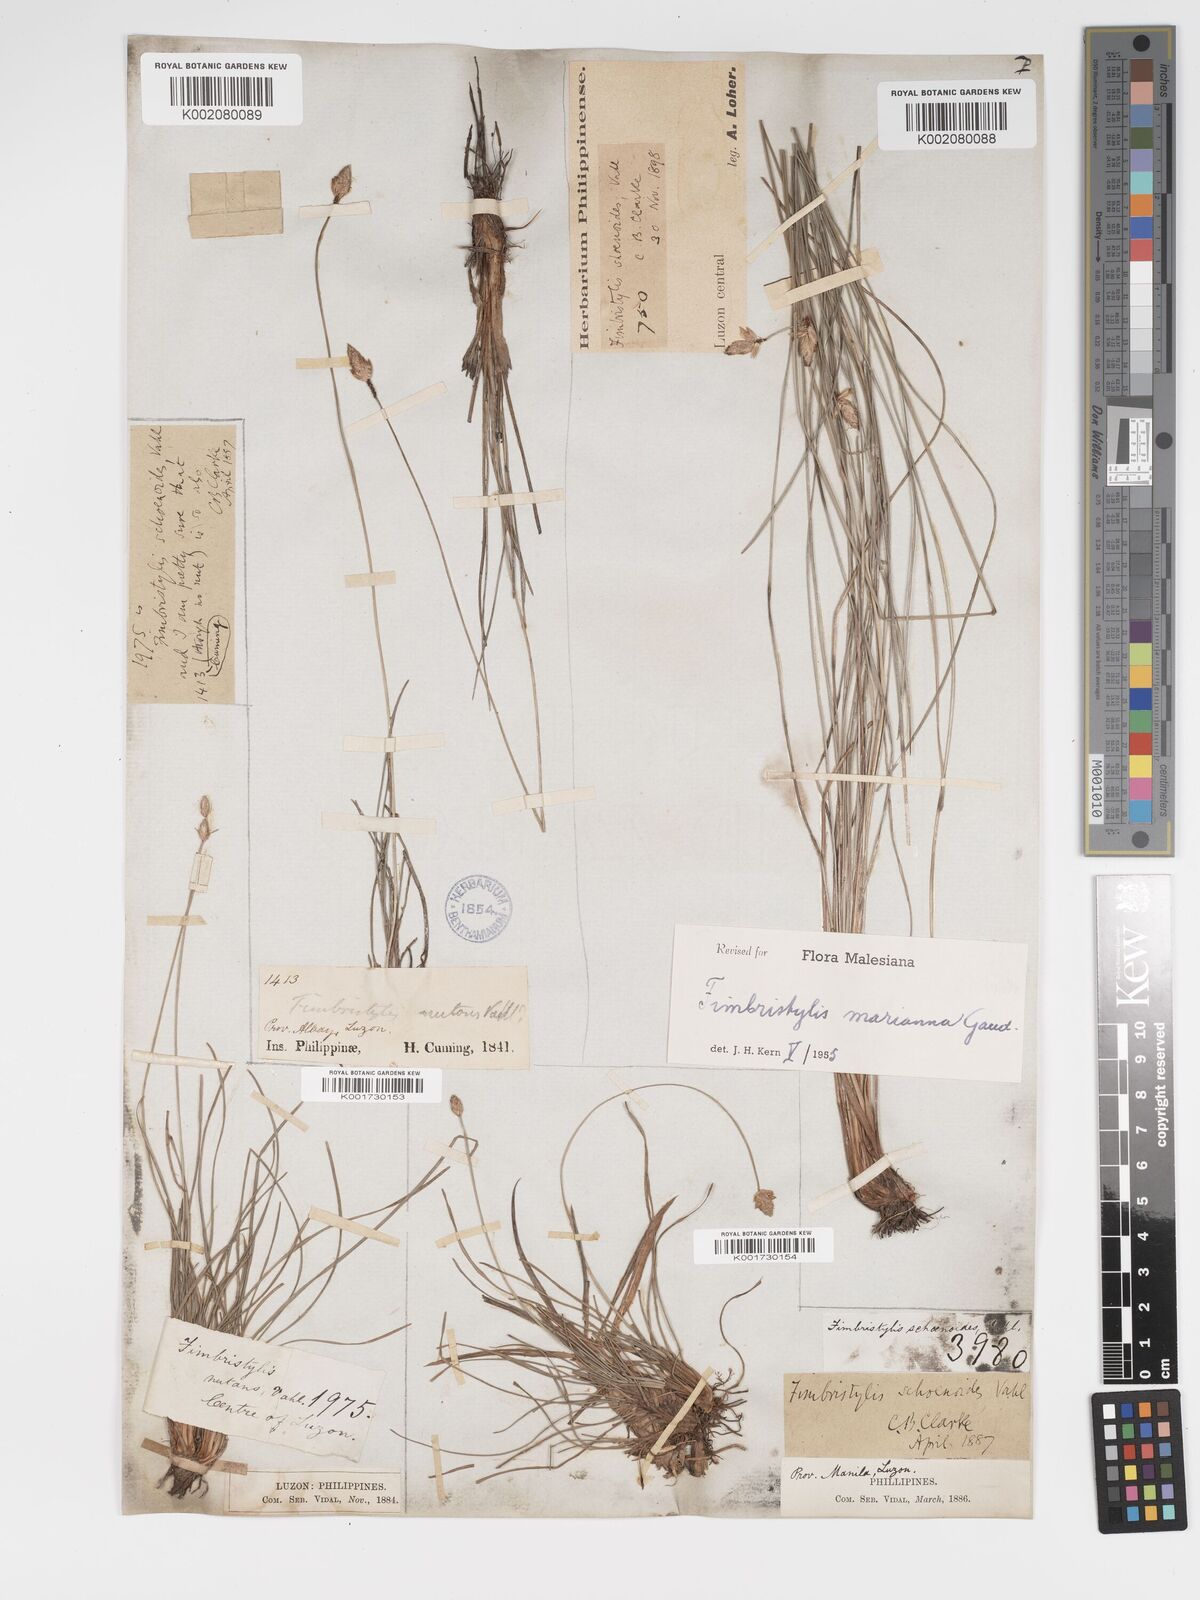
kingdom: Plantae
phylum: Tracheophyta
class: Liliopsida
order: Poales
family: Cyperaceae
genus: Fimbristylis
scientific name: Fimbristylis tristachya
